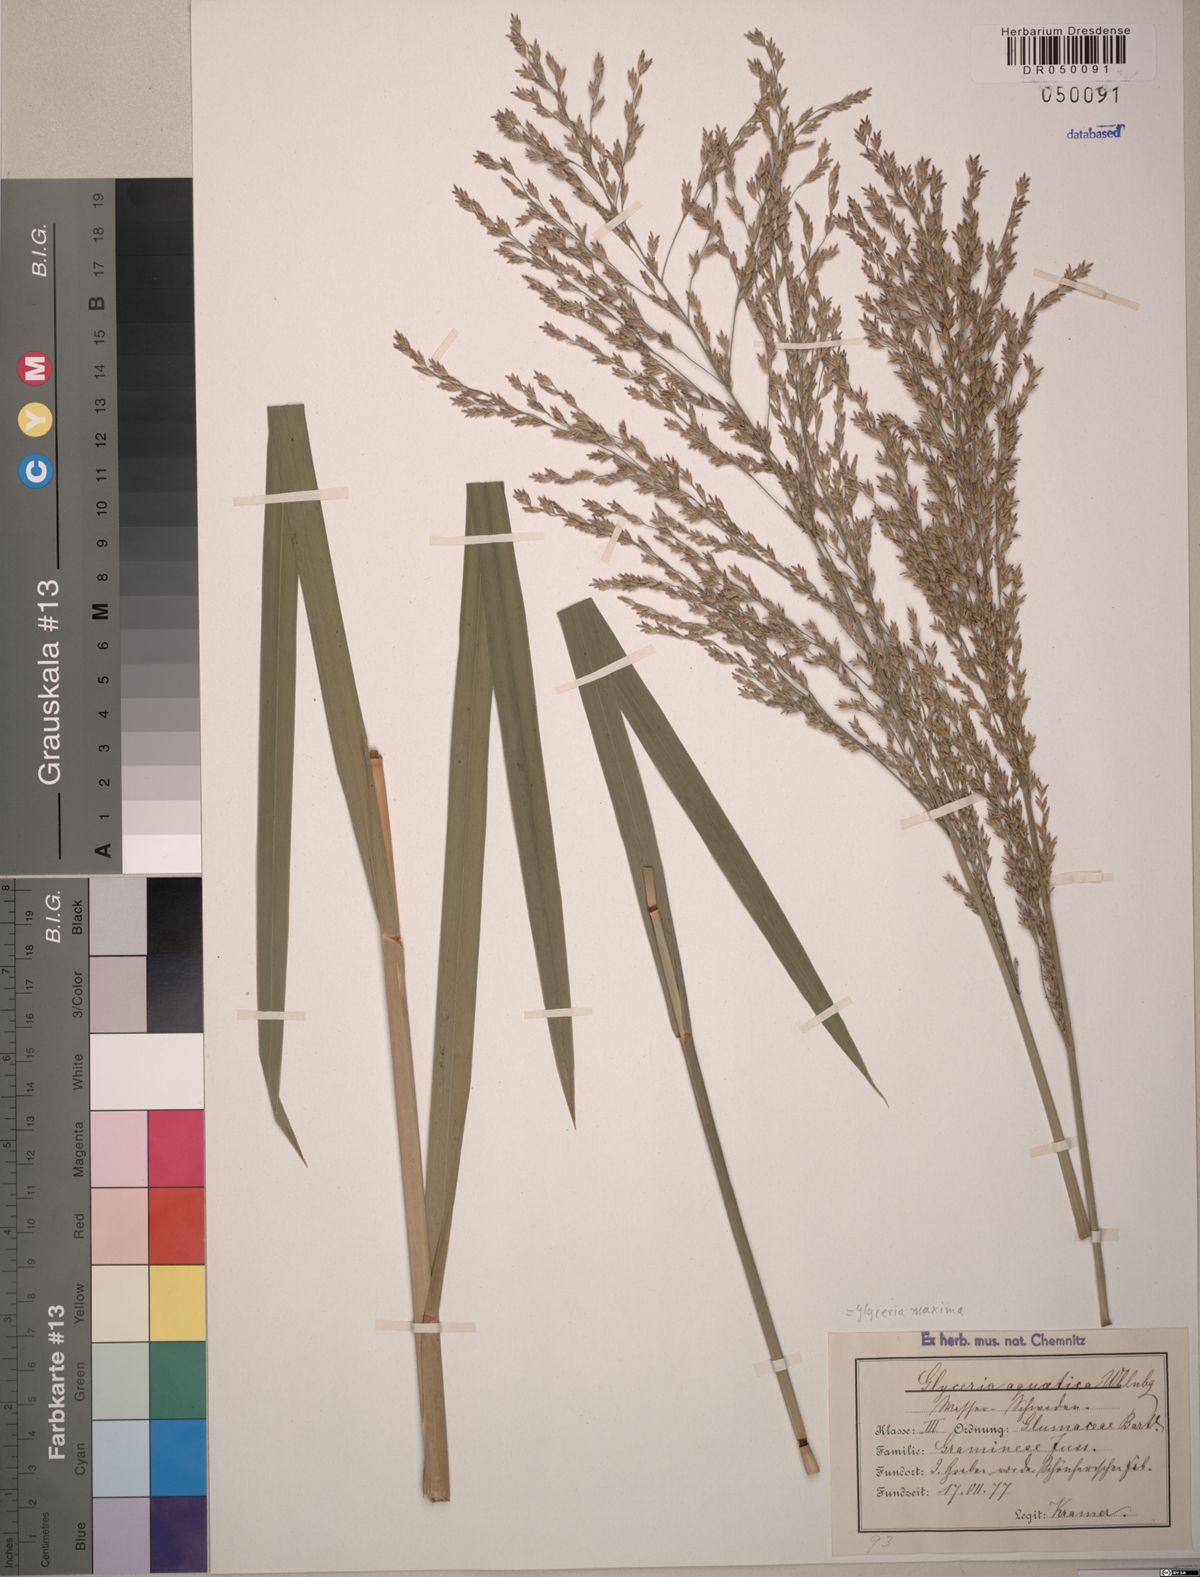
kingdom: Plantae
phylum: Tracheophyta
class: Liliopsida
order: Poales
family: Poaceae
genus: Glyceria
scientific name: Glyceria maxima
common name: Reed mannagrass
